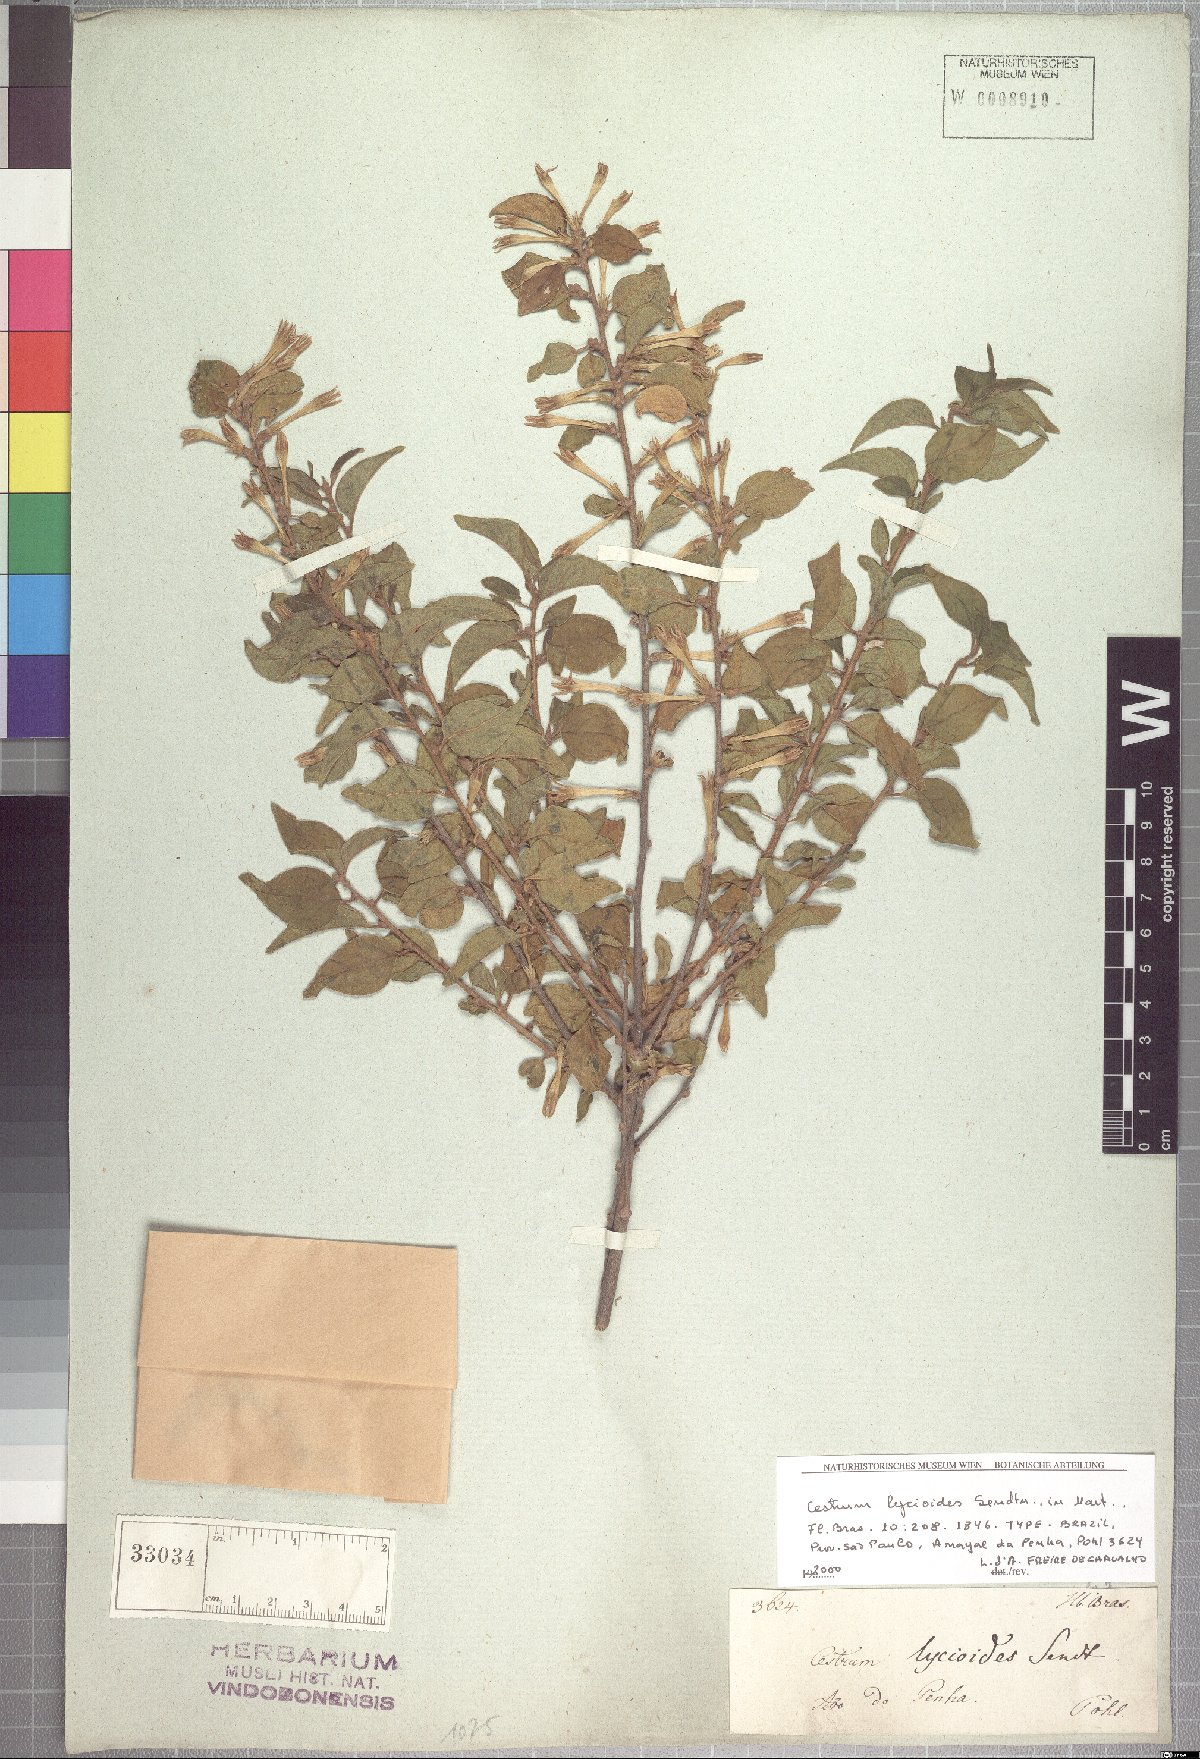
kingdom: Plantae
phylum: Tracheophyta
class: Magnoliopsida
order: Solanales
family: Solanaceae
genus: Cestrum
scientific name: Cestrum gardneri
